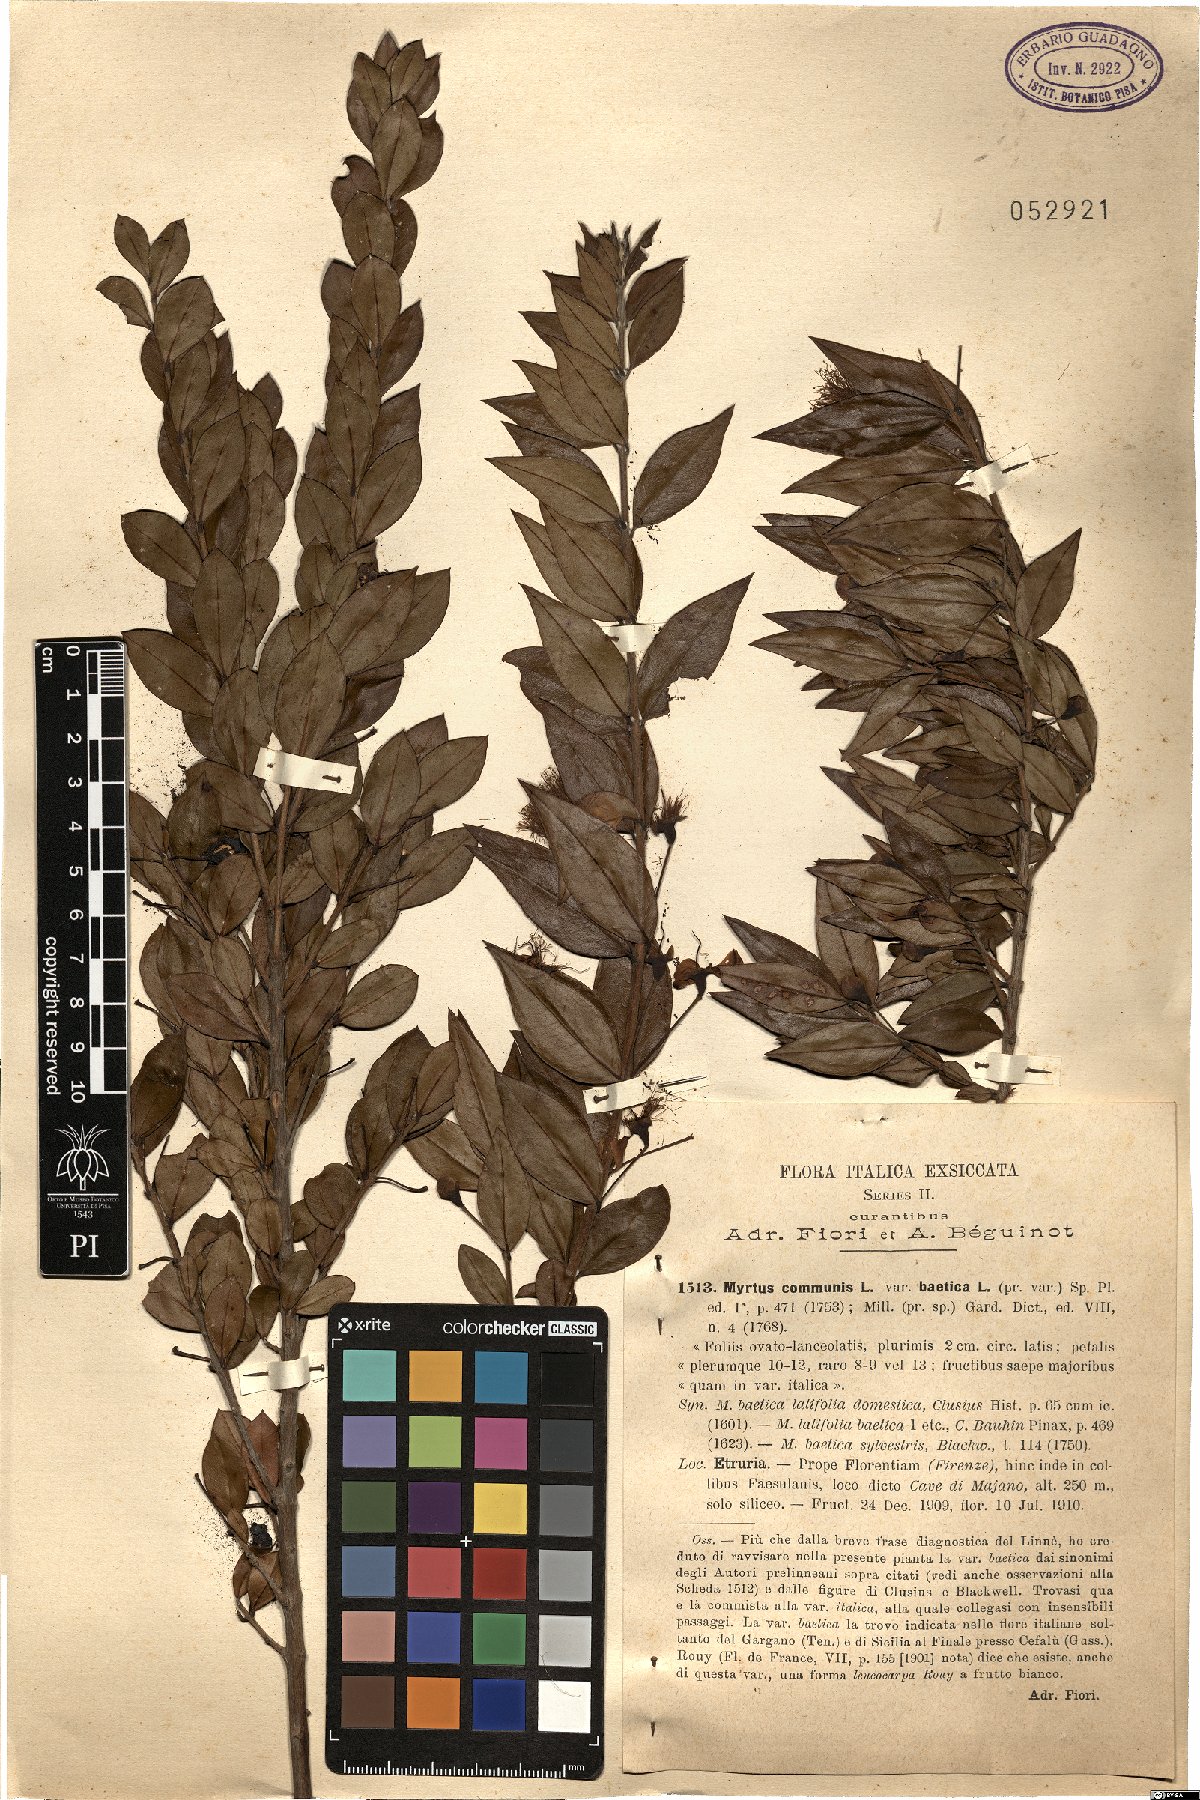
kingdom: Plantae
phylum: Tracheophyta
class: Magnoliopsida
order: Myrtales
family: Myrtaceae
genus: Myrtus
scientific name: Myrtus communis
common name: Myrtle
